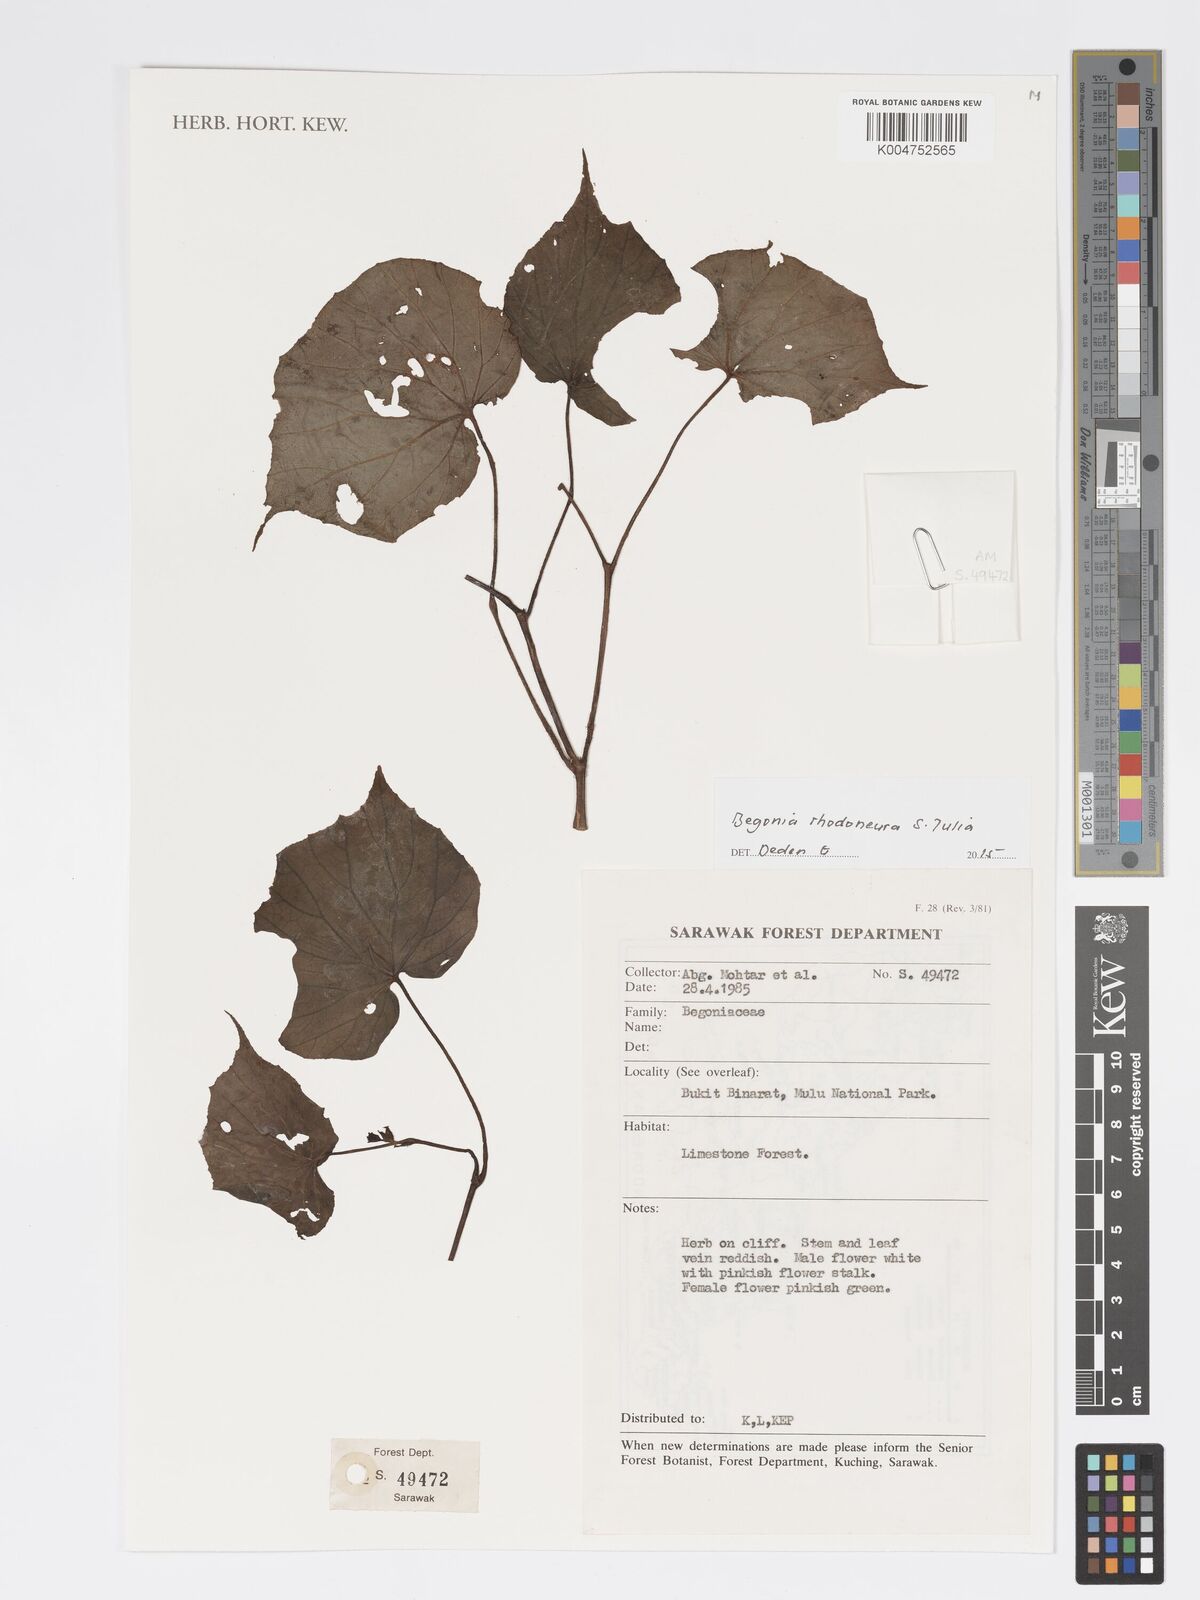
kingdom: Plantae
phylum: Tracheophyta
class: Magnoliopsida
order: Cucurbitales
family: Begoniaceae
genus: Begonia
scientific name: Begonia rhodoneura
